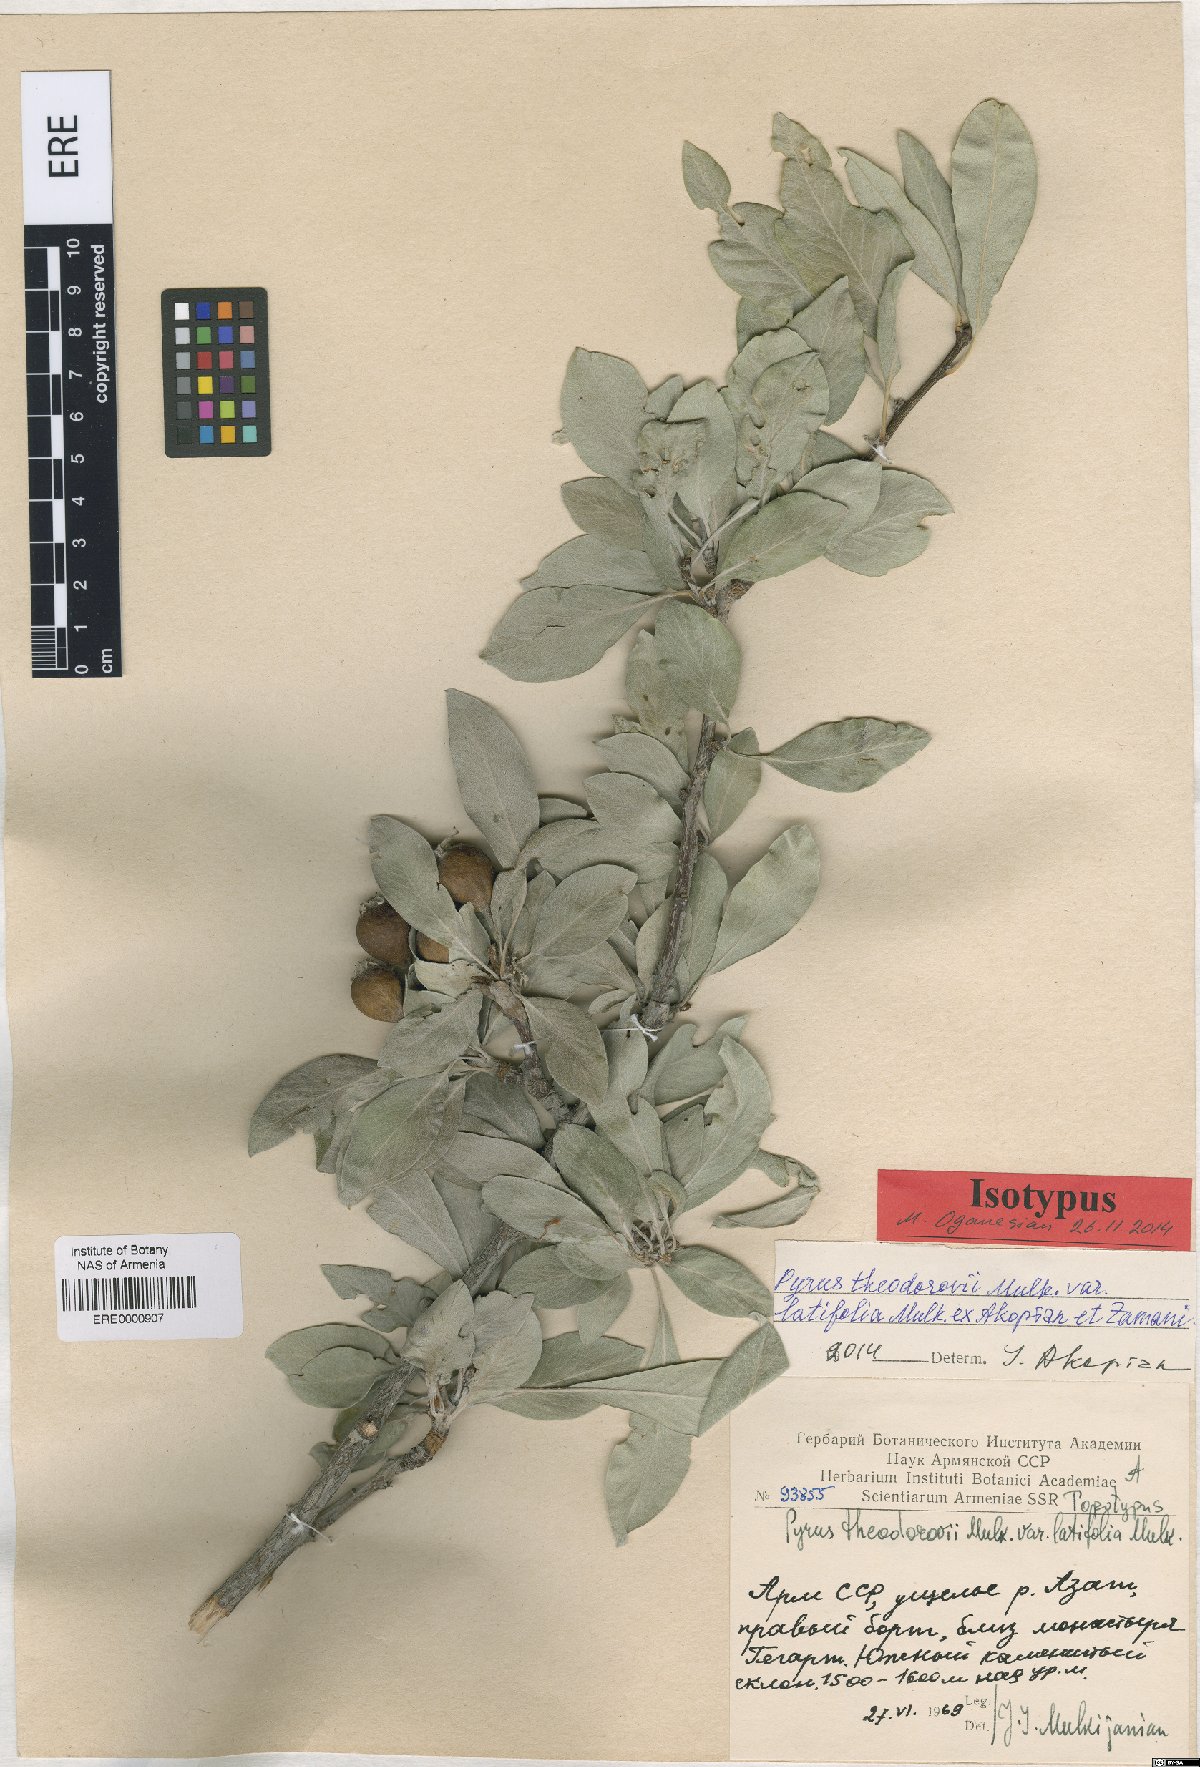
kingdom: Plantae
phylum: Tracheophyta
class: Magnoliopsida
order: Rosales
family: Rosaceae
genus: Pyrus
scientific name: Pyrus theodorovii
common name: Teodorov's pear
